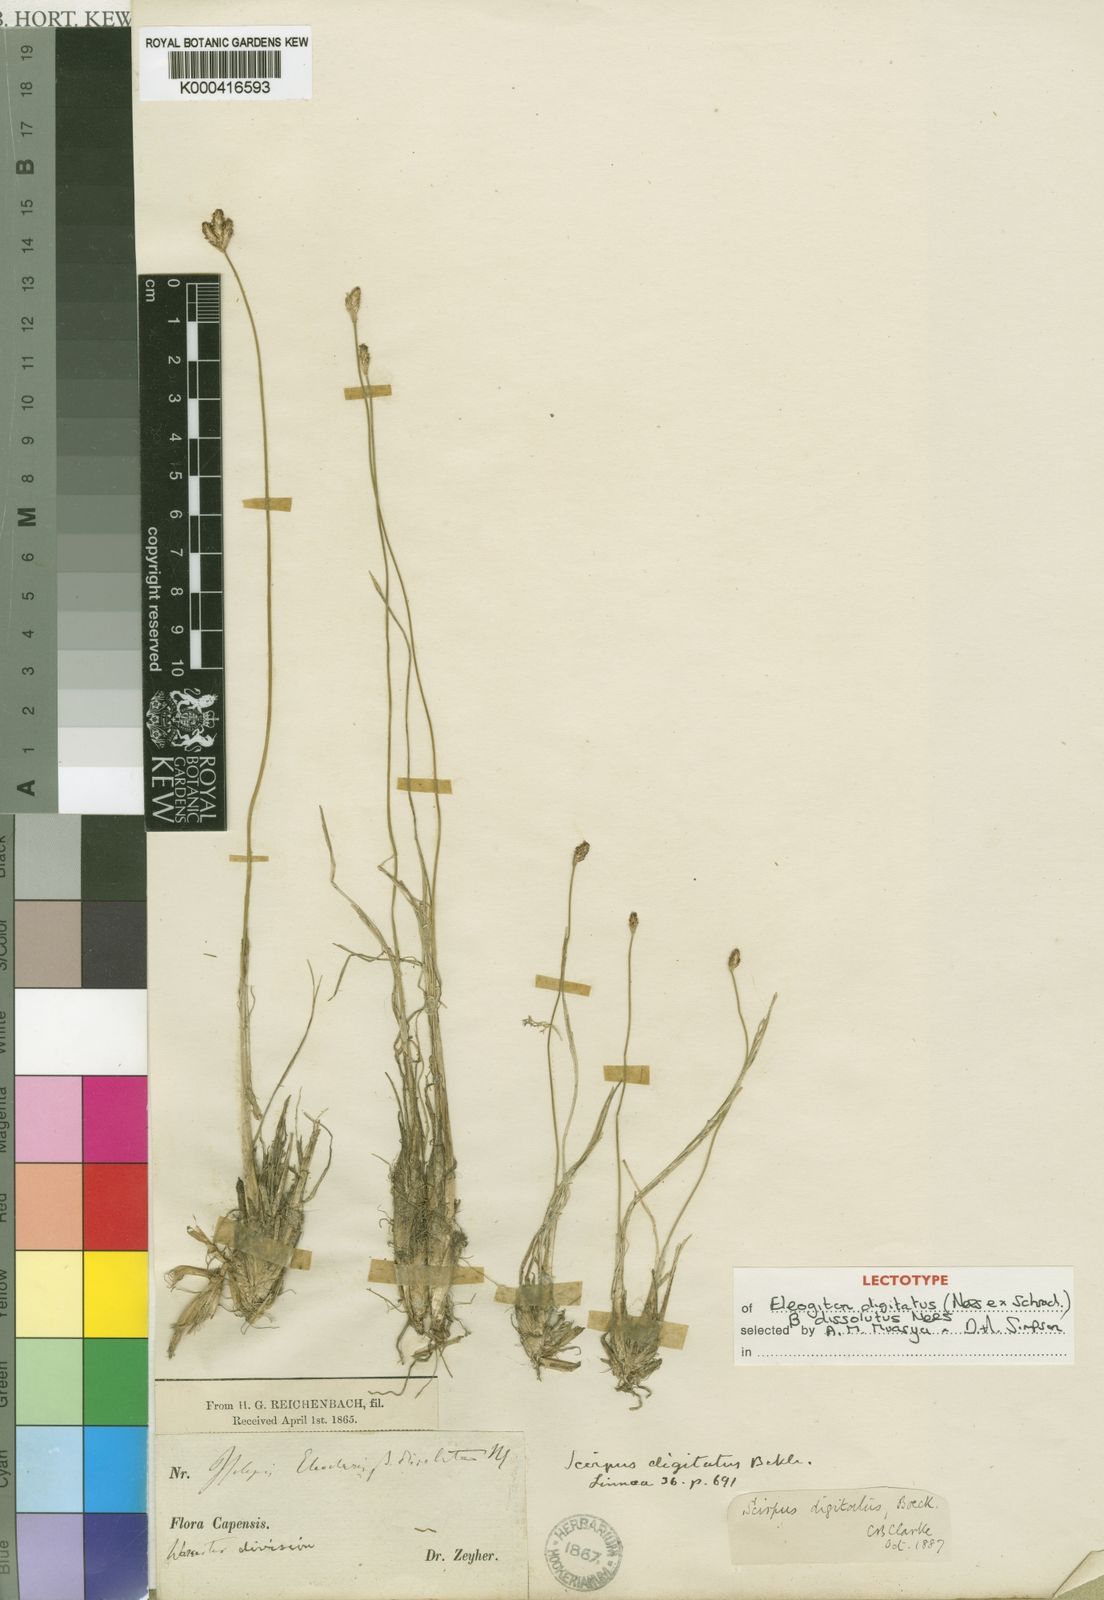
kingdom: Plantae
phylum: Tracheophyta
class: Liliopsida
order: Poales
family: Cyperaceae
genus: Isolepis
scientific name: Isolepis digitata
